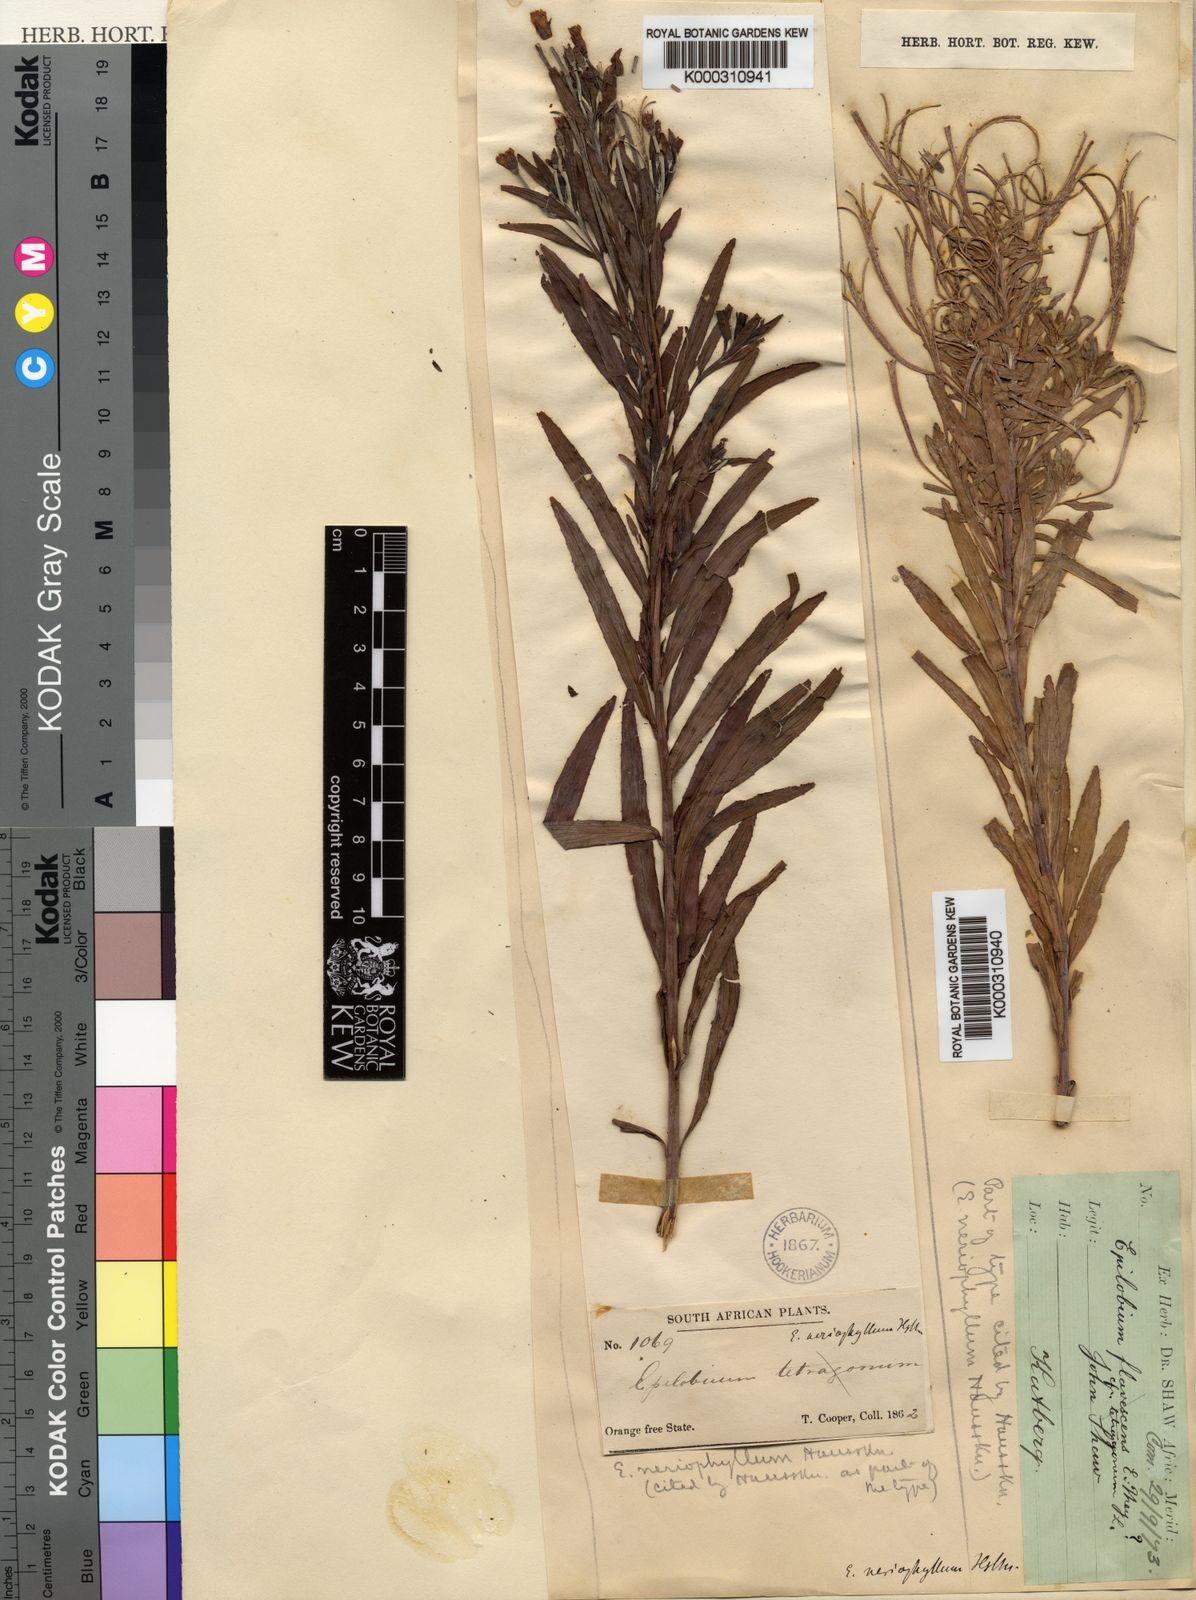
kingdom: Plantae
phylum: Tracheophyta
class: Magnoliopsida
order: Myrtales
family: Onagraceae
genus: Epilobium
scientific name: Epilobium salignum
